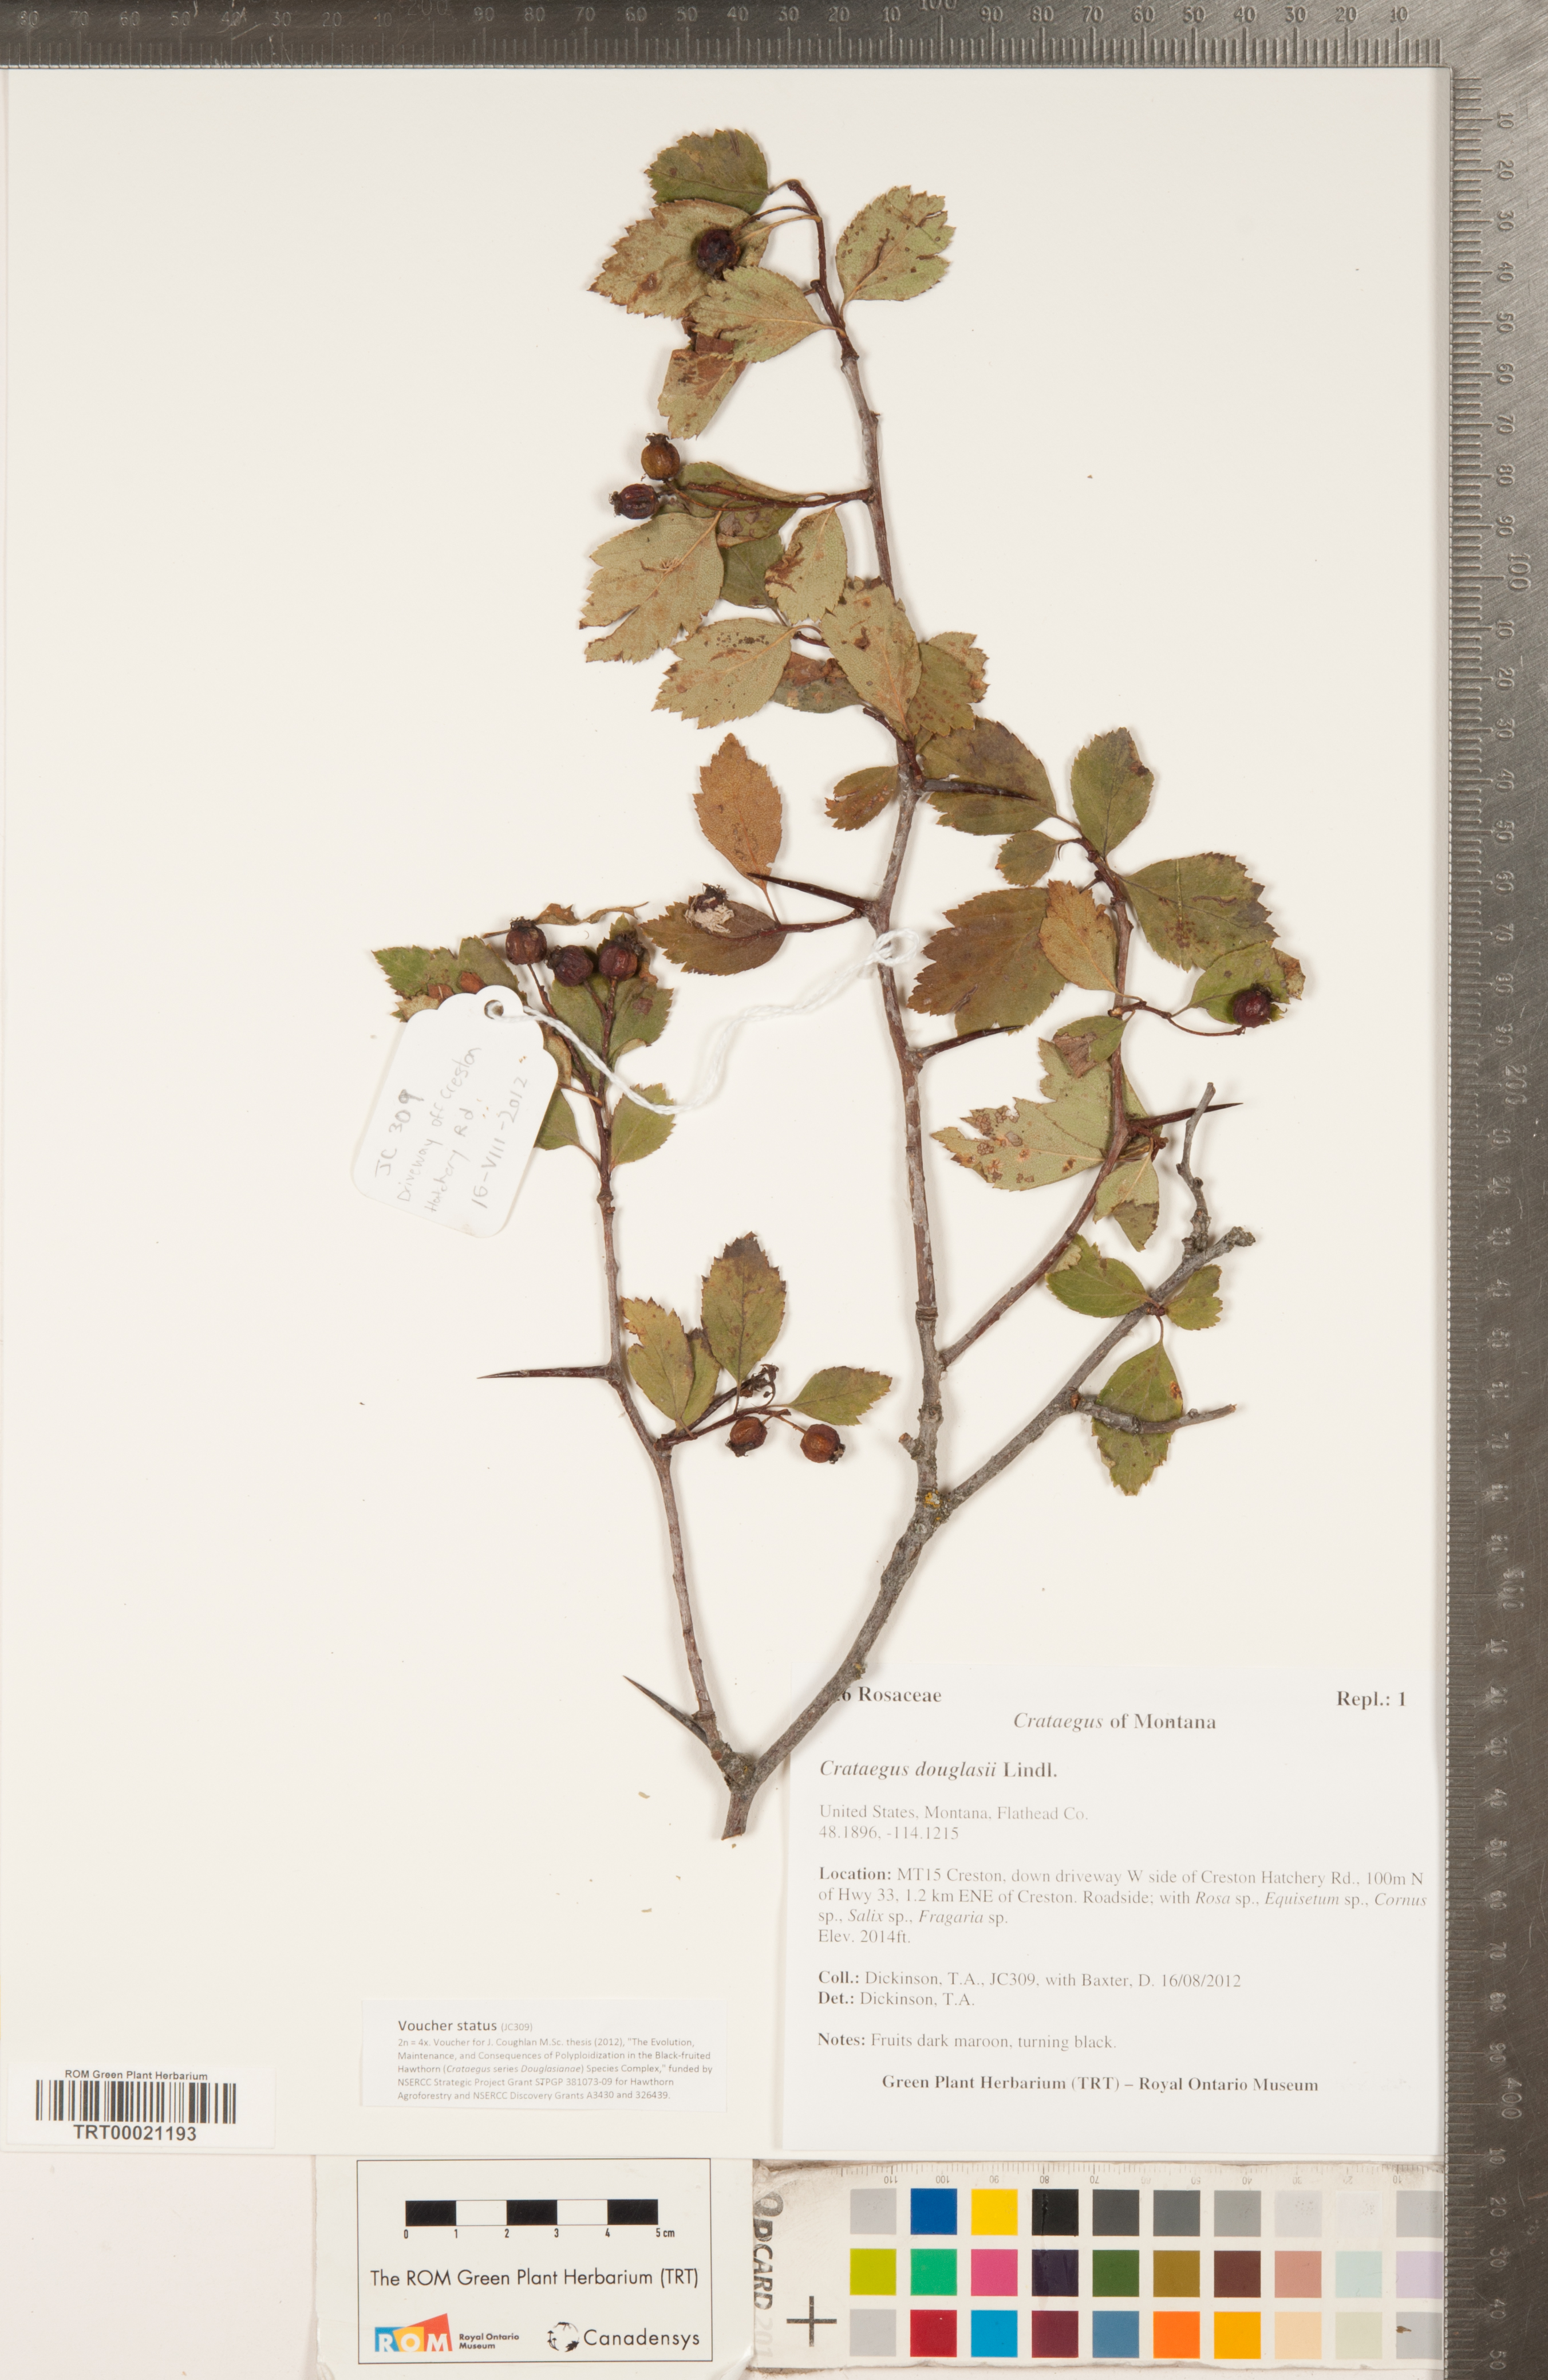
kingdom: Plantae
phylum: Tracheophyta
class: Magnoliopsida
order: Rosales
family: Rosaceae
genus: Crataegus
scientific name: Crataegus douglasii
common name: Black hawthorn
